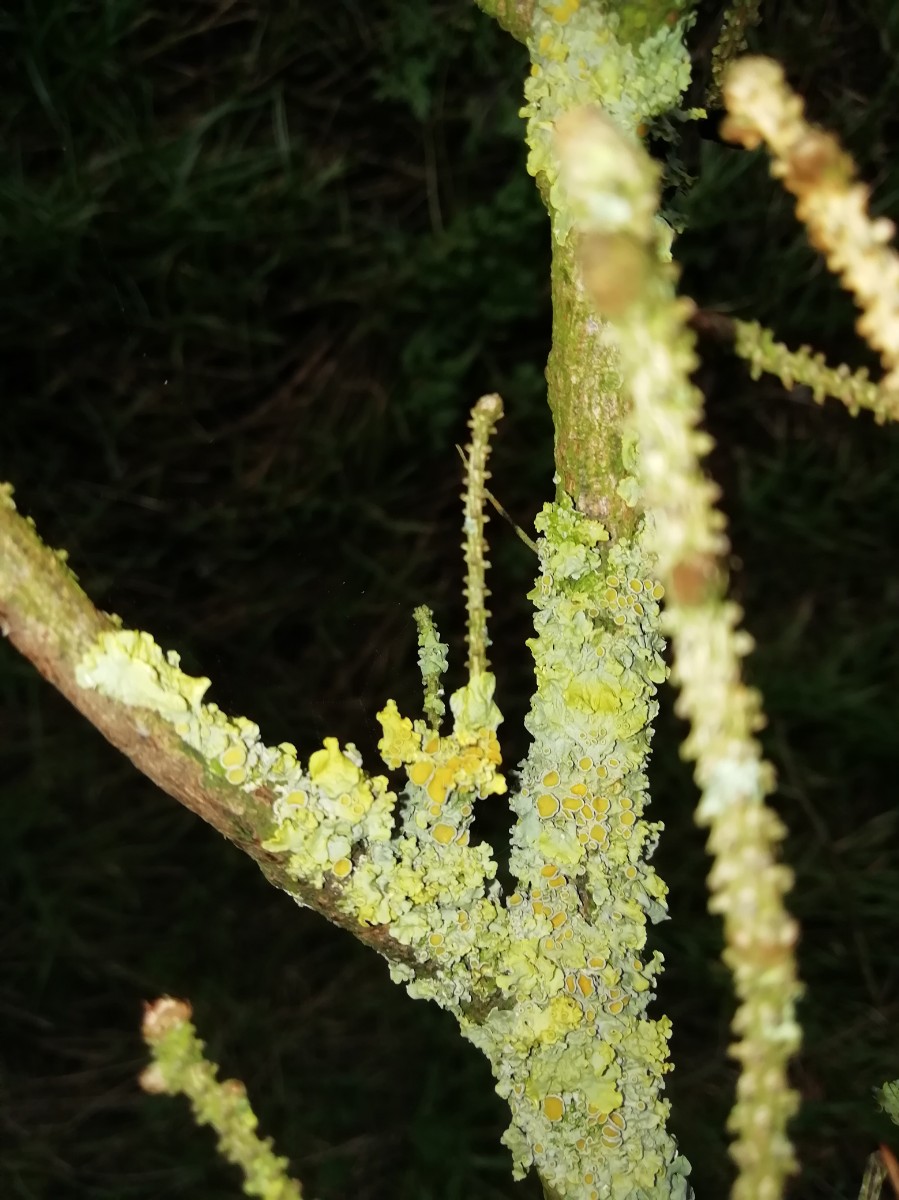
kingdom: Fungi
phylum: Ascomycota
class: Lecanoromycetes
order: Teloschistales
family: Teloschistaceae
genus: Xanthoria
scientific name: Xanthoria parietina
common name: almindelig væggelav
